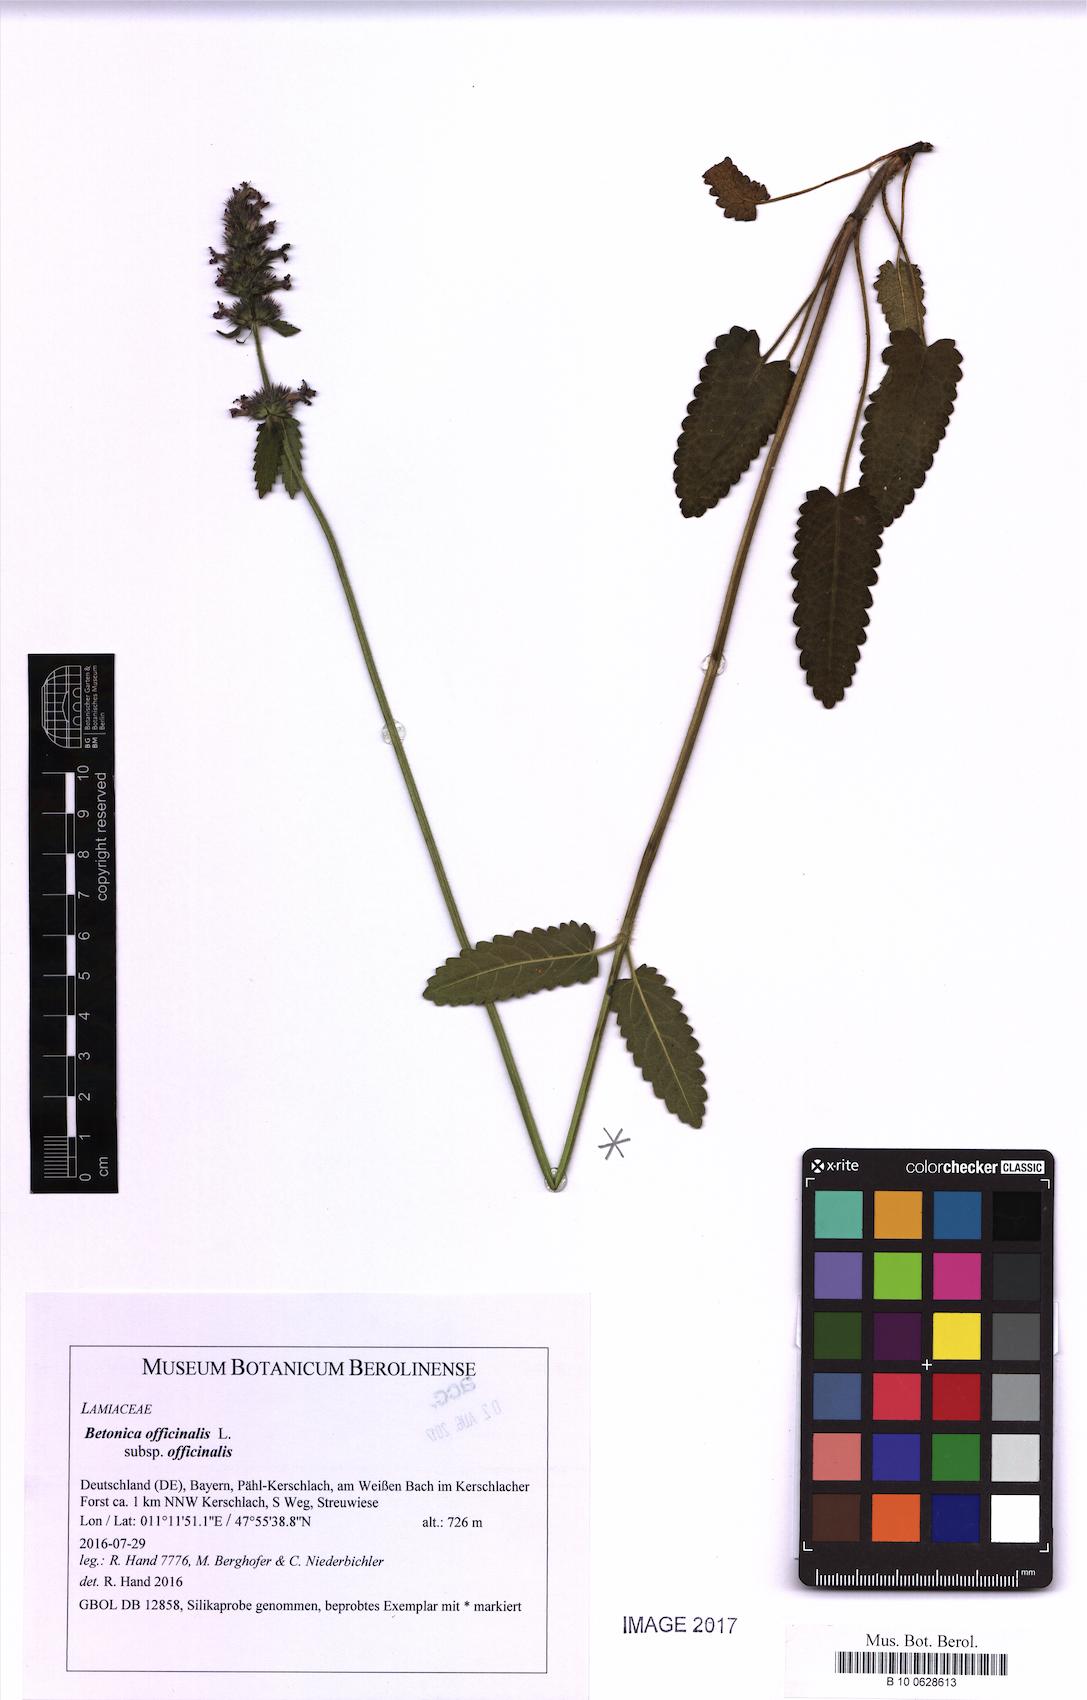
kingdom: Plantae
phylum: Tracheophyta
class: Magnoliopsida
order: Lamiales
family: Lamiaceae
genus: Betonica
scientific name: Betonica officinalis
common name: Bishop's-wort
